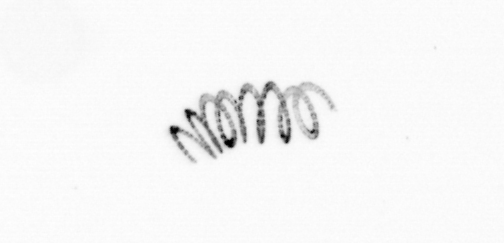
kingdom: Chromista
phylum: Ochrophyta
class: Bacillariophyceae
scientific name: Bacillariophyceae
